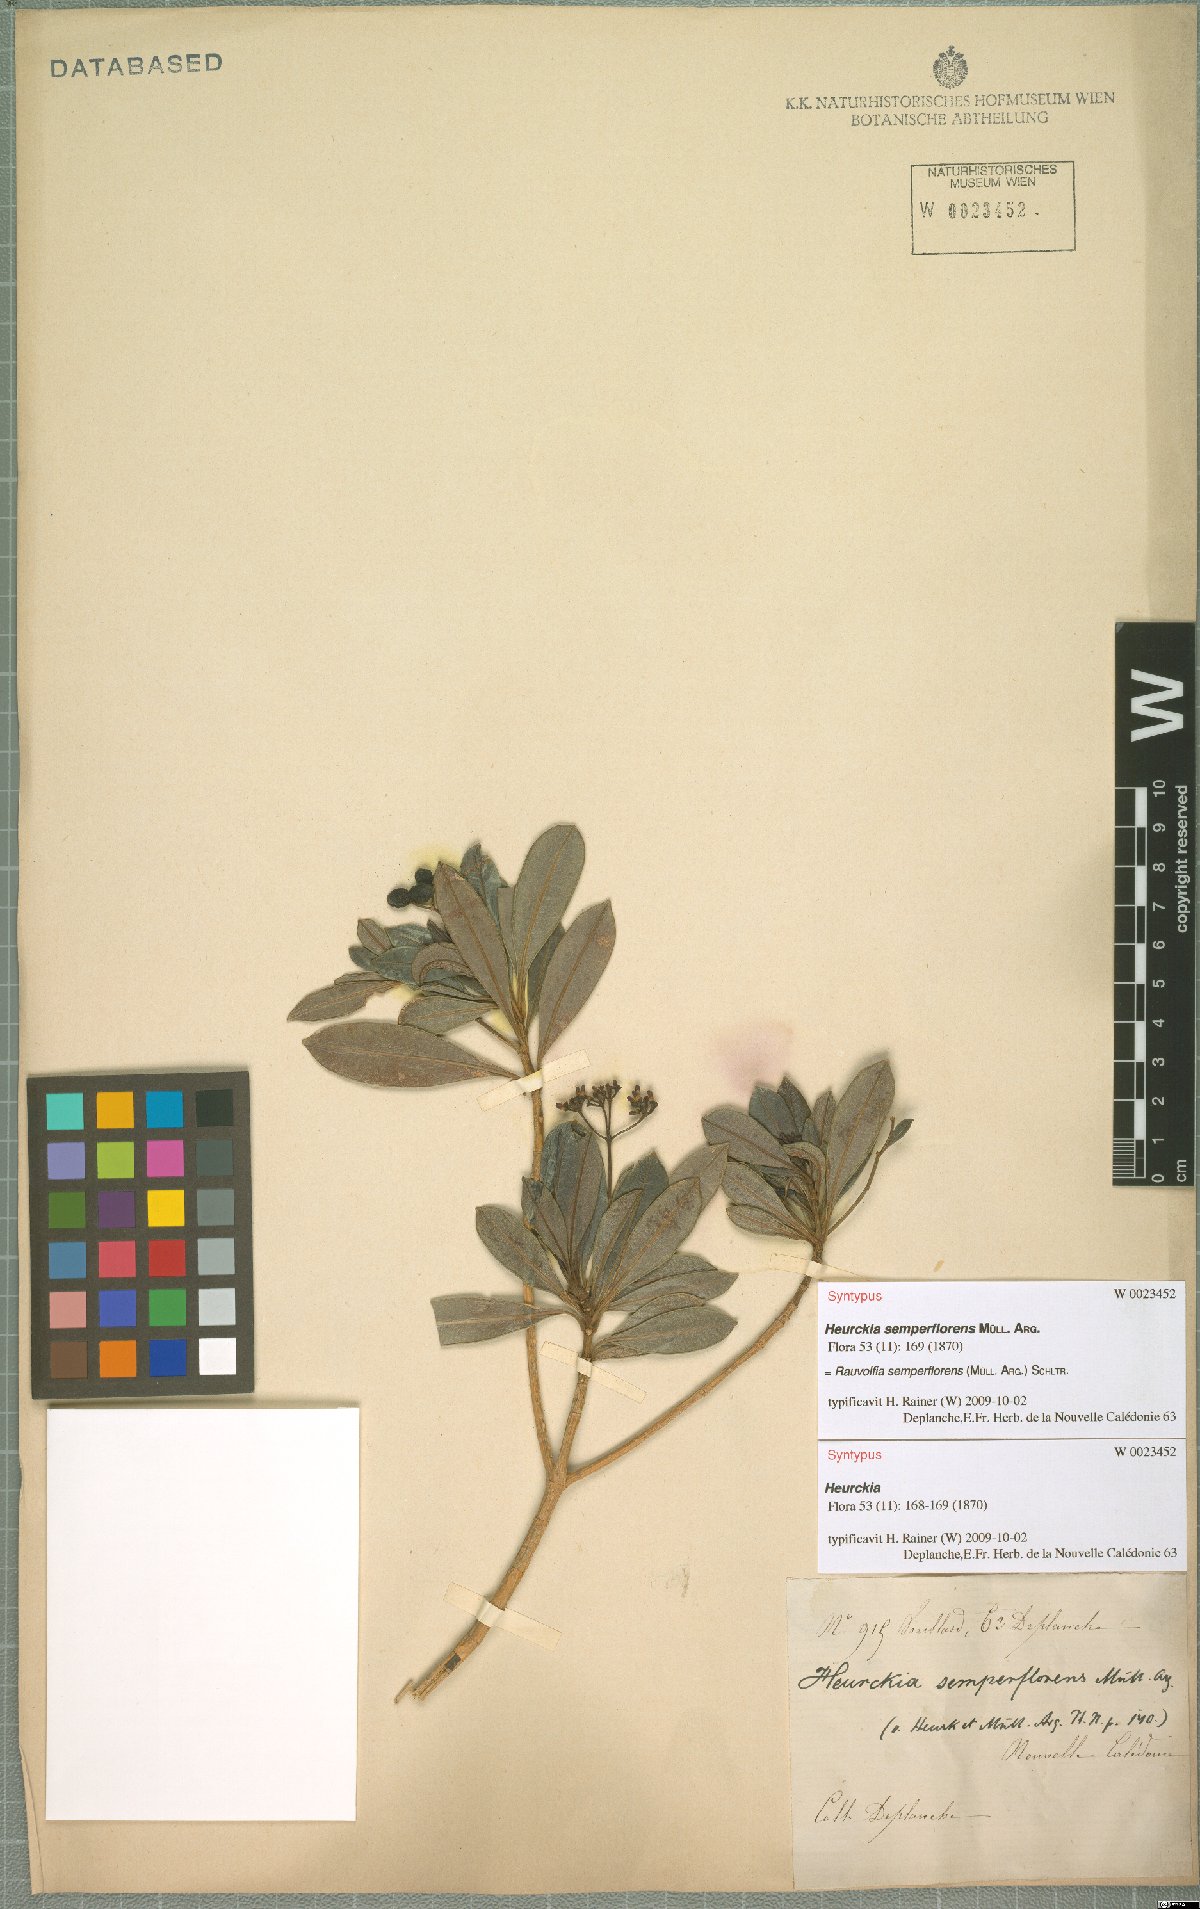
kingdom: Plantae
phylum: Tracheophyta
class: Magnoliopsida
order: Gentianales
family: Apocynaceae
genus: Rauvolfia
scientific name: Rauvolfia semperflorens
